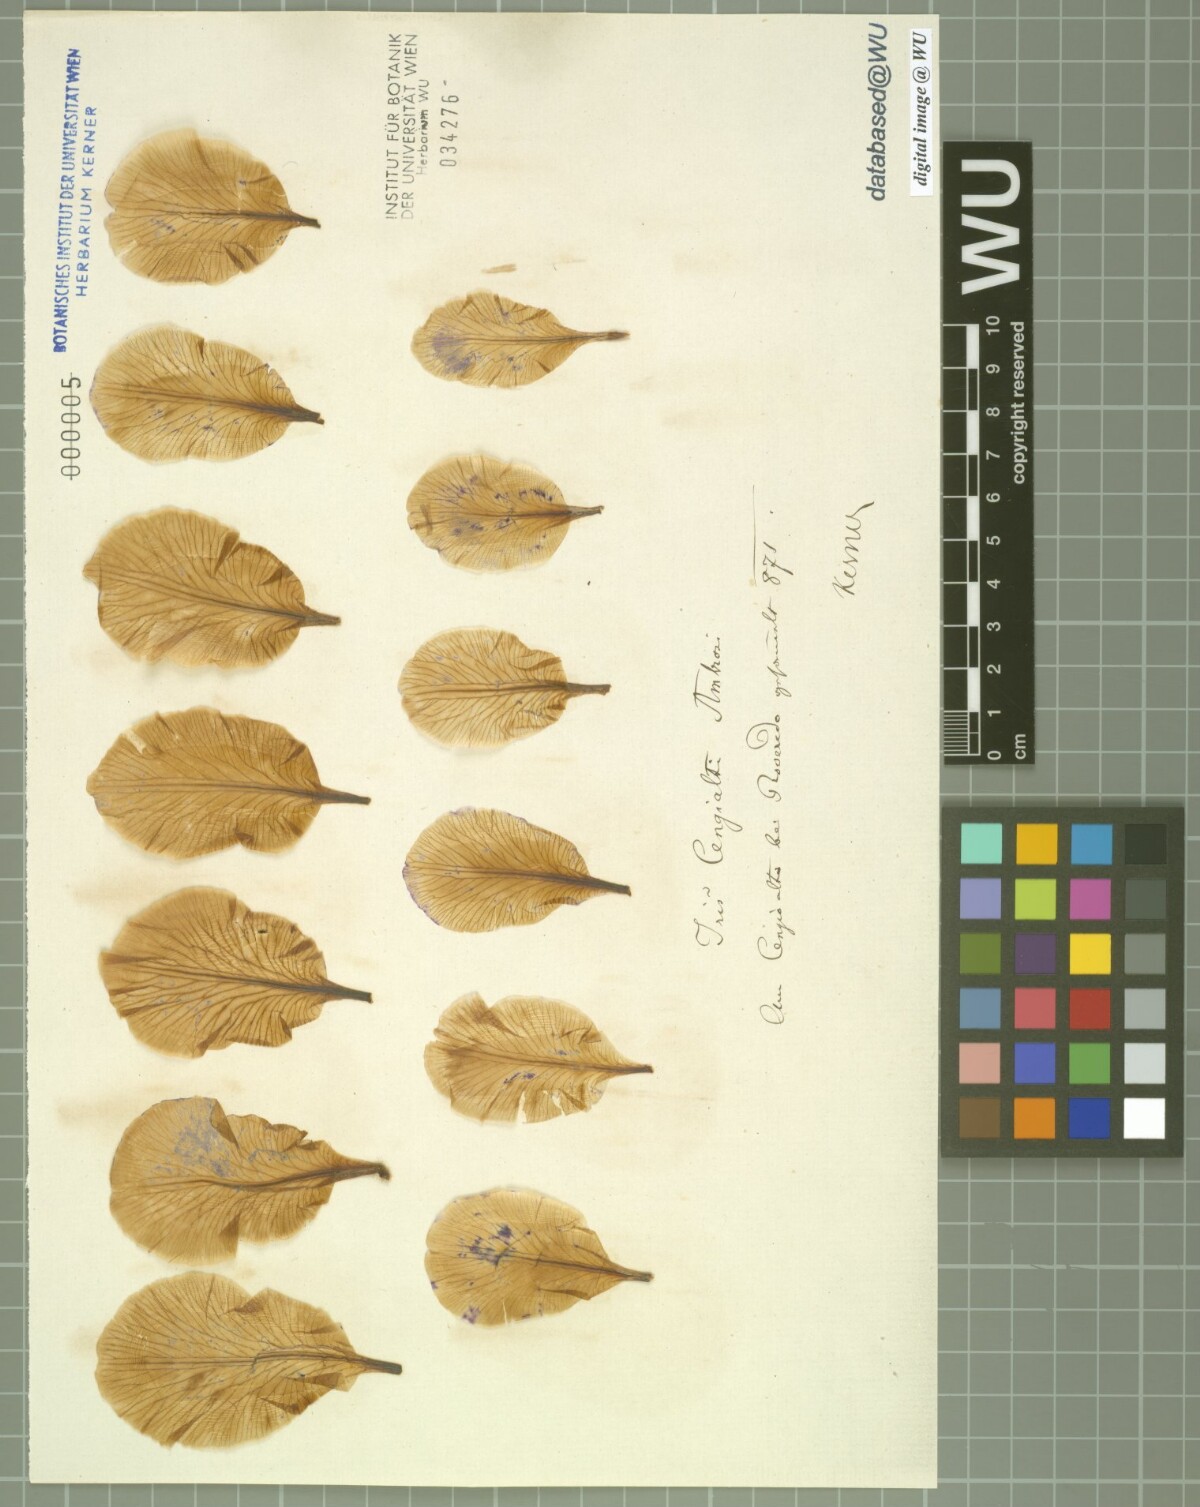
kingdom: Plantae
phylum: Tracheophyta
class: Liliopsida
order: Asparagales
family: Iridaceae
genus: Iris
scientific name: Iris pallida
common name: Sweet iris
